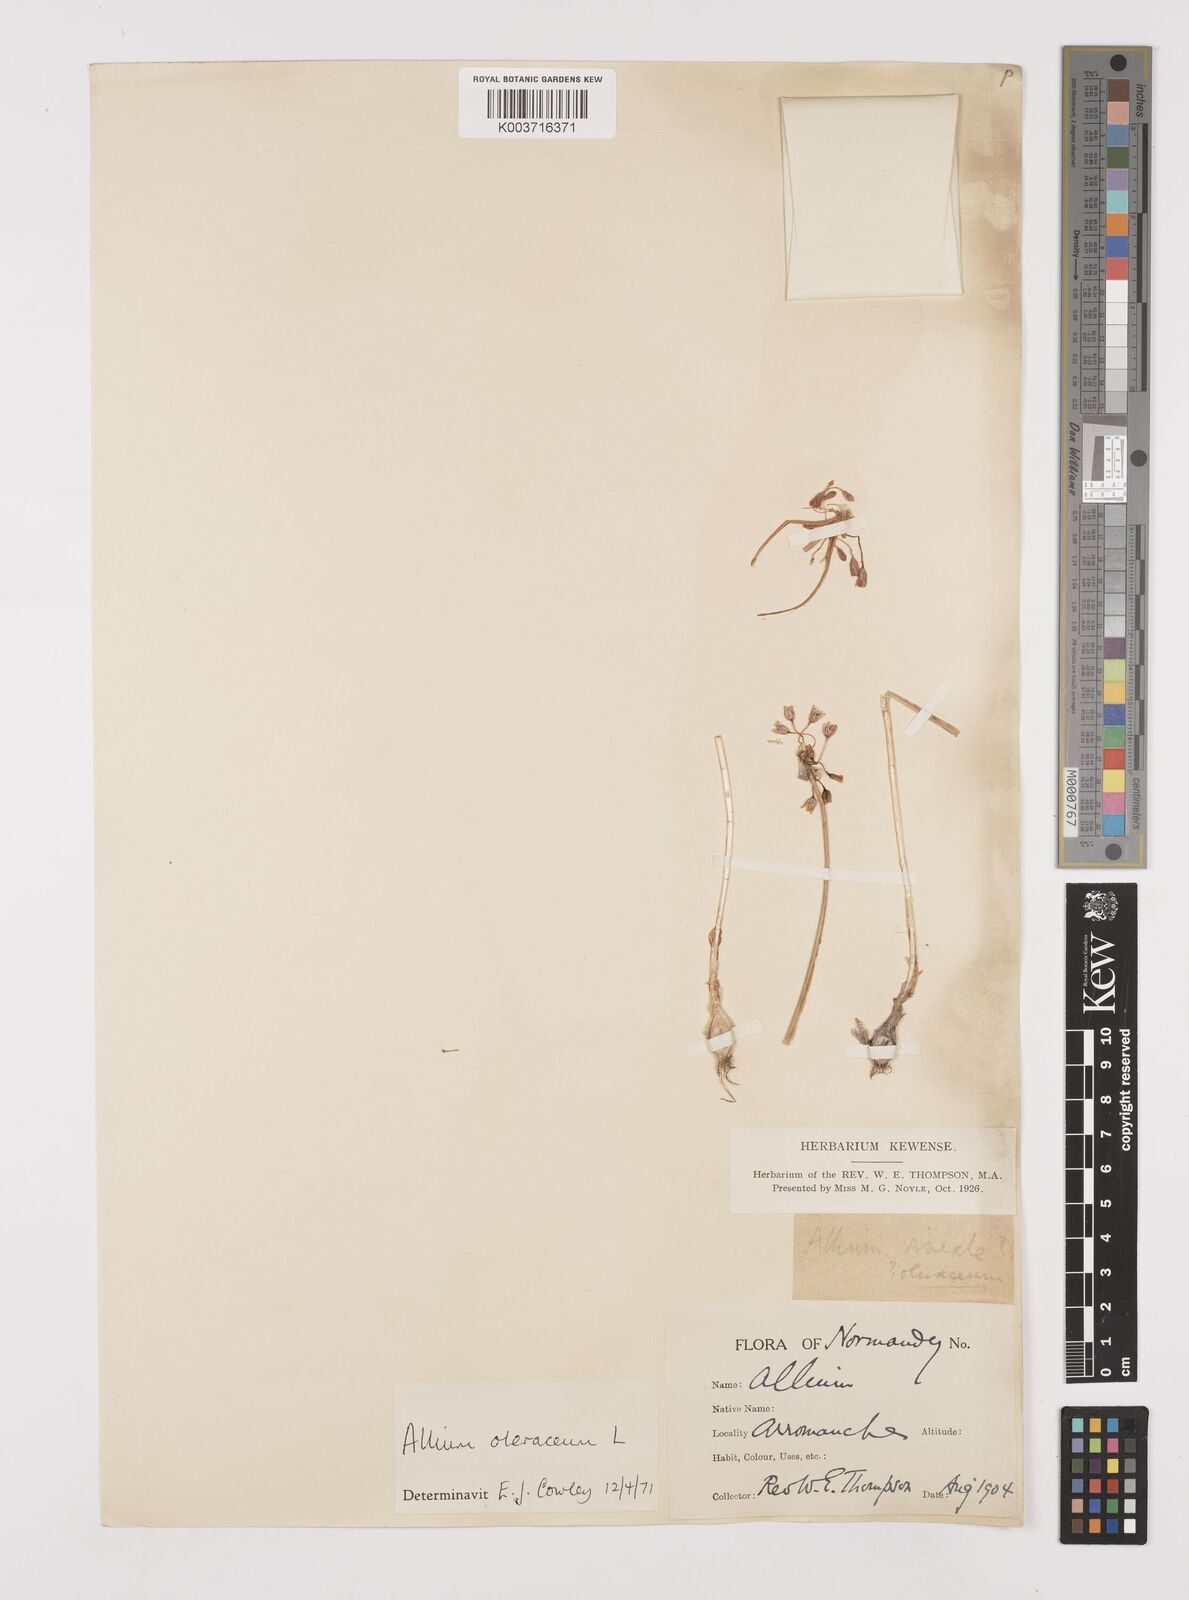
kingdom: Plantae
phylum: Tracheophyta
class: Liliopsida
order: Asparagales
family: Amaryllidaceae
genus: Allium
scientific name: Allium oleraceum
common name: Field garlic
